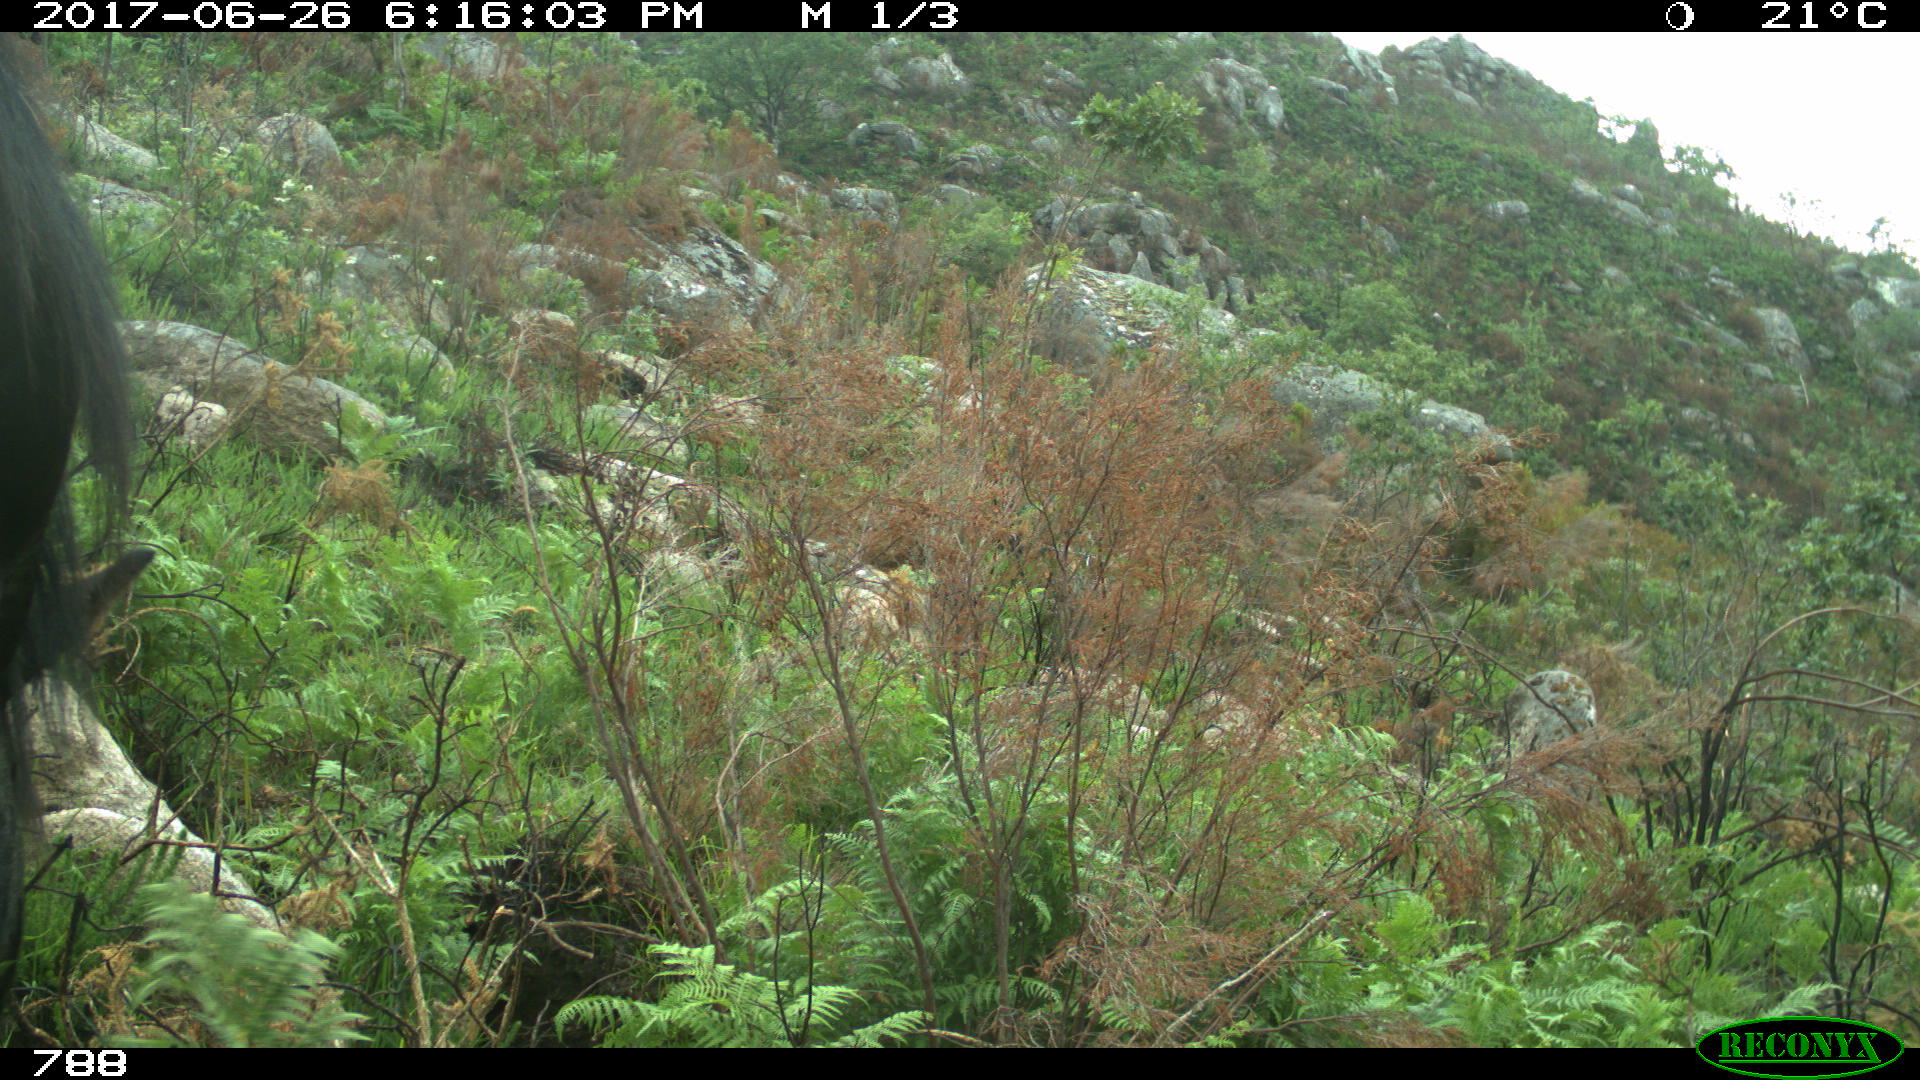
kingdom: Animalia
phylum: Chordata
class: Mammalia
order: Perissodactyla
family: Equidae
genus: Equus
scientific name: Equus caballus
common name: Horse
